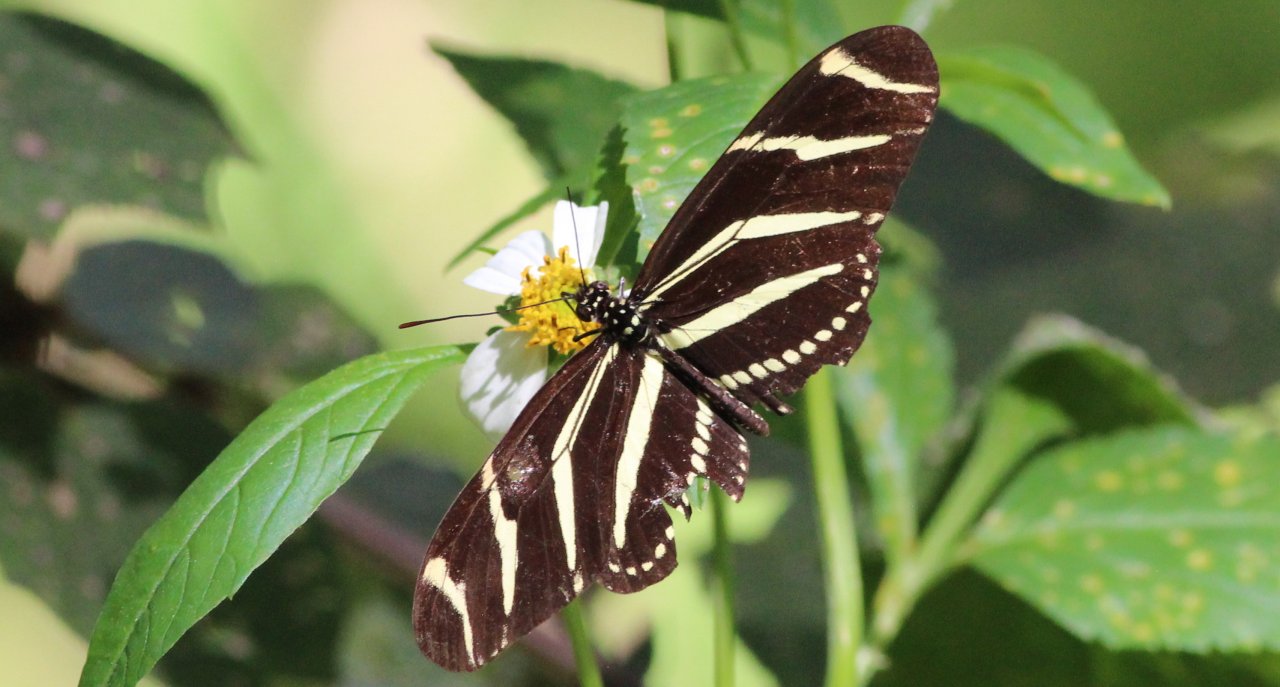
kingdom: Animalia
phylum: Arthropoda
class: Insecta
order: Lepidoptera
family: Nymphalidae
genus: Heliconius
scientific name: Heliconius charithonia
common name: Zebra Longwing
